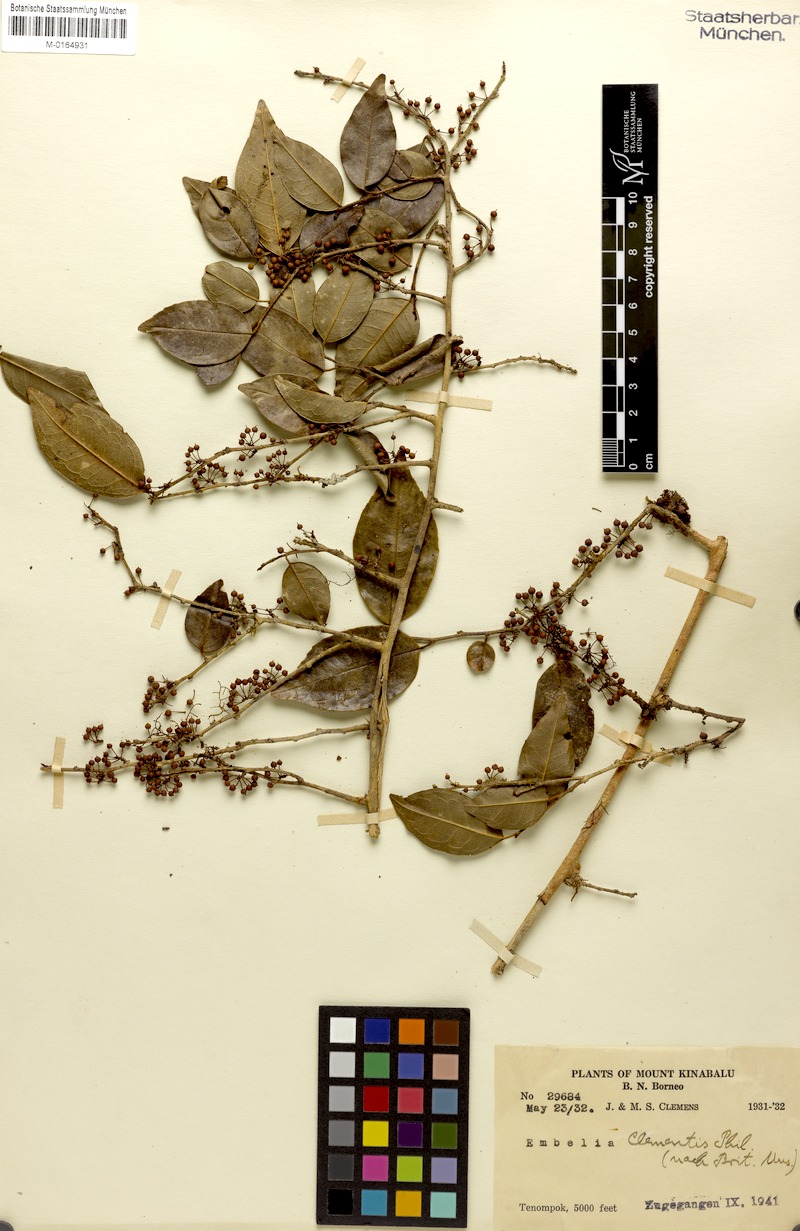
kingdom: Plantae
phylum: Tracheophyta
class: Magnoliopsida
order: Ericales
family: Primulaceae
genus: Embelia
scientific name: Embelia
